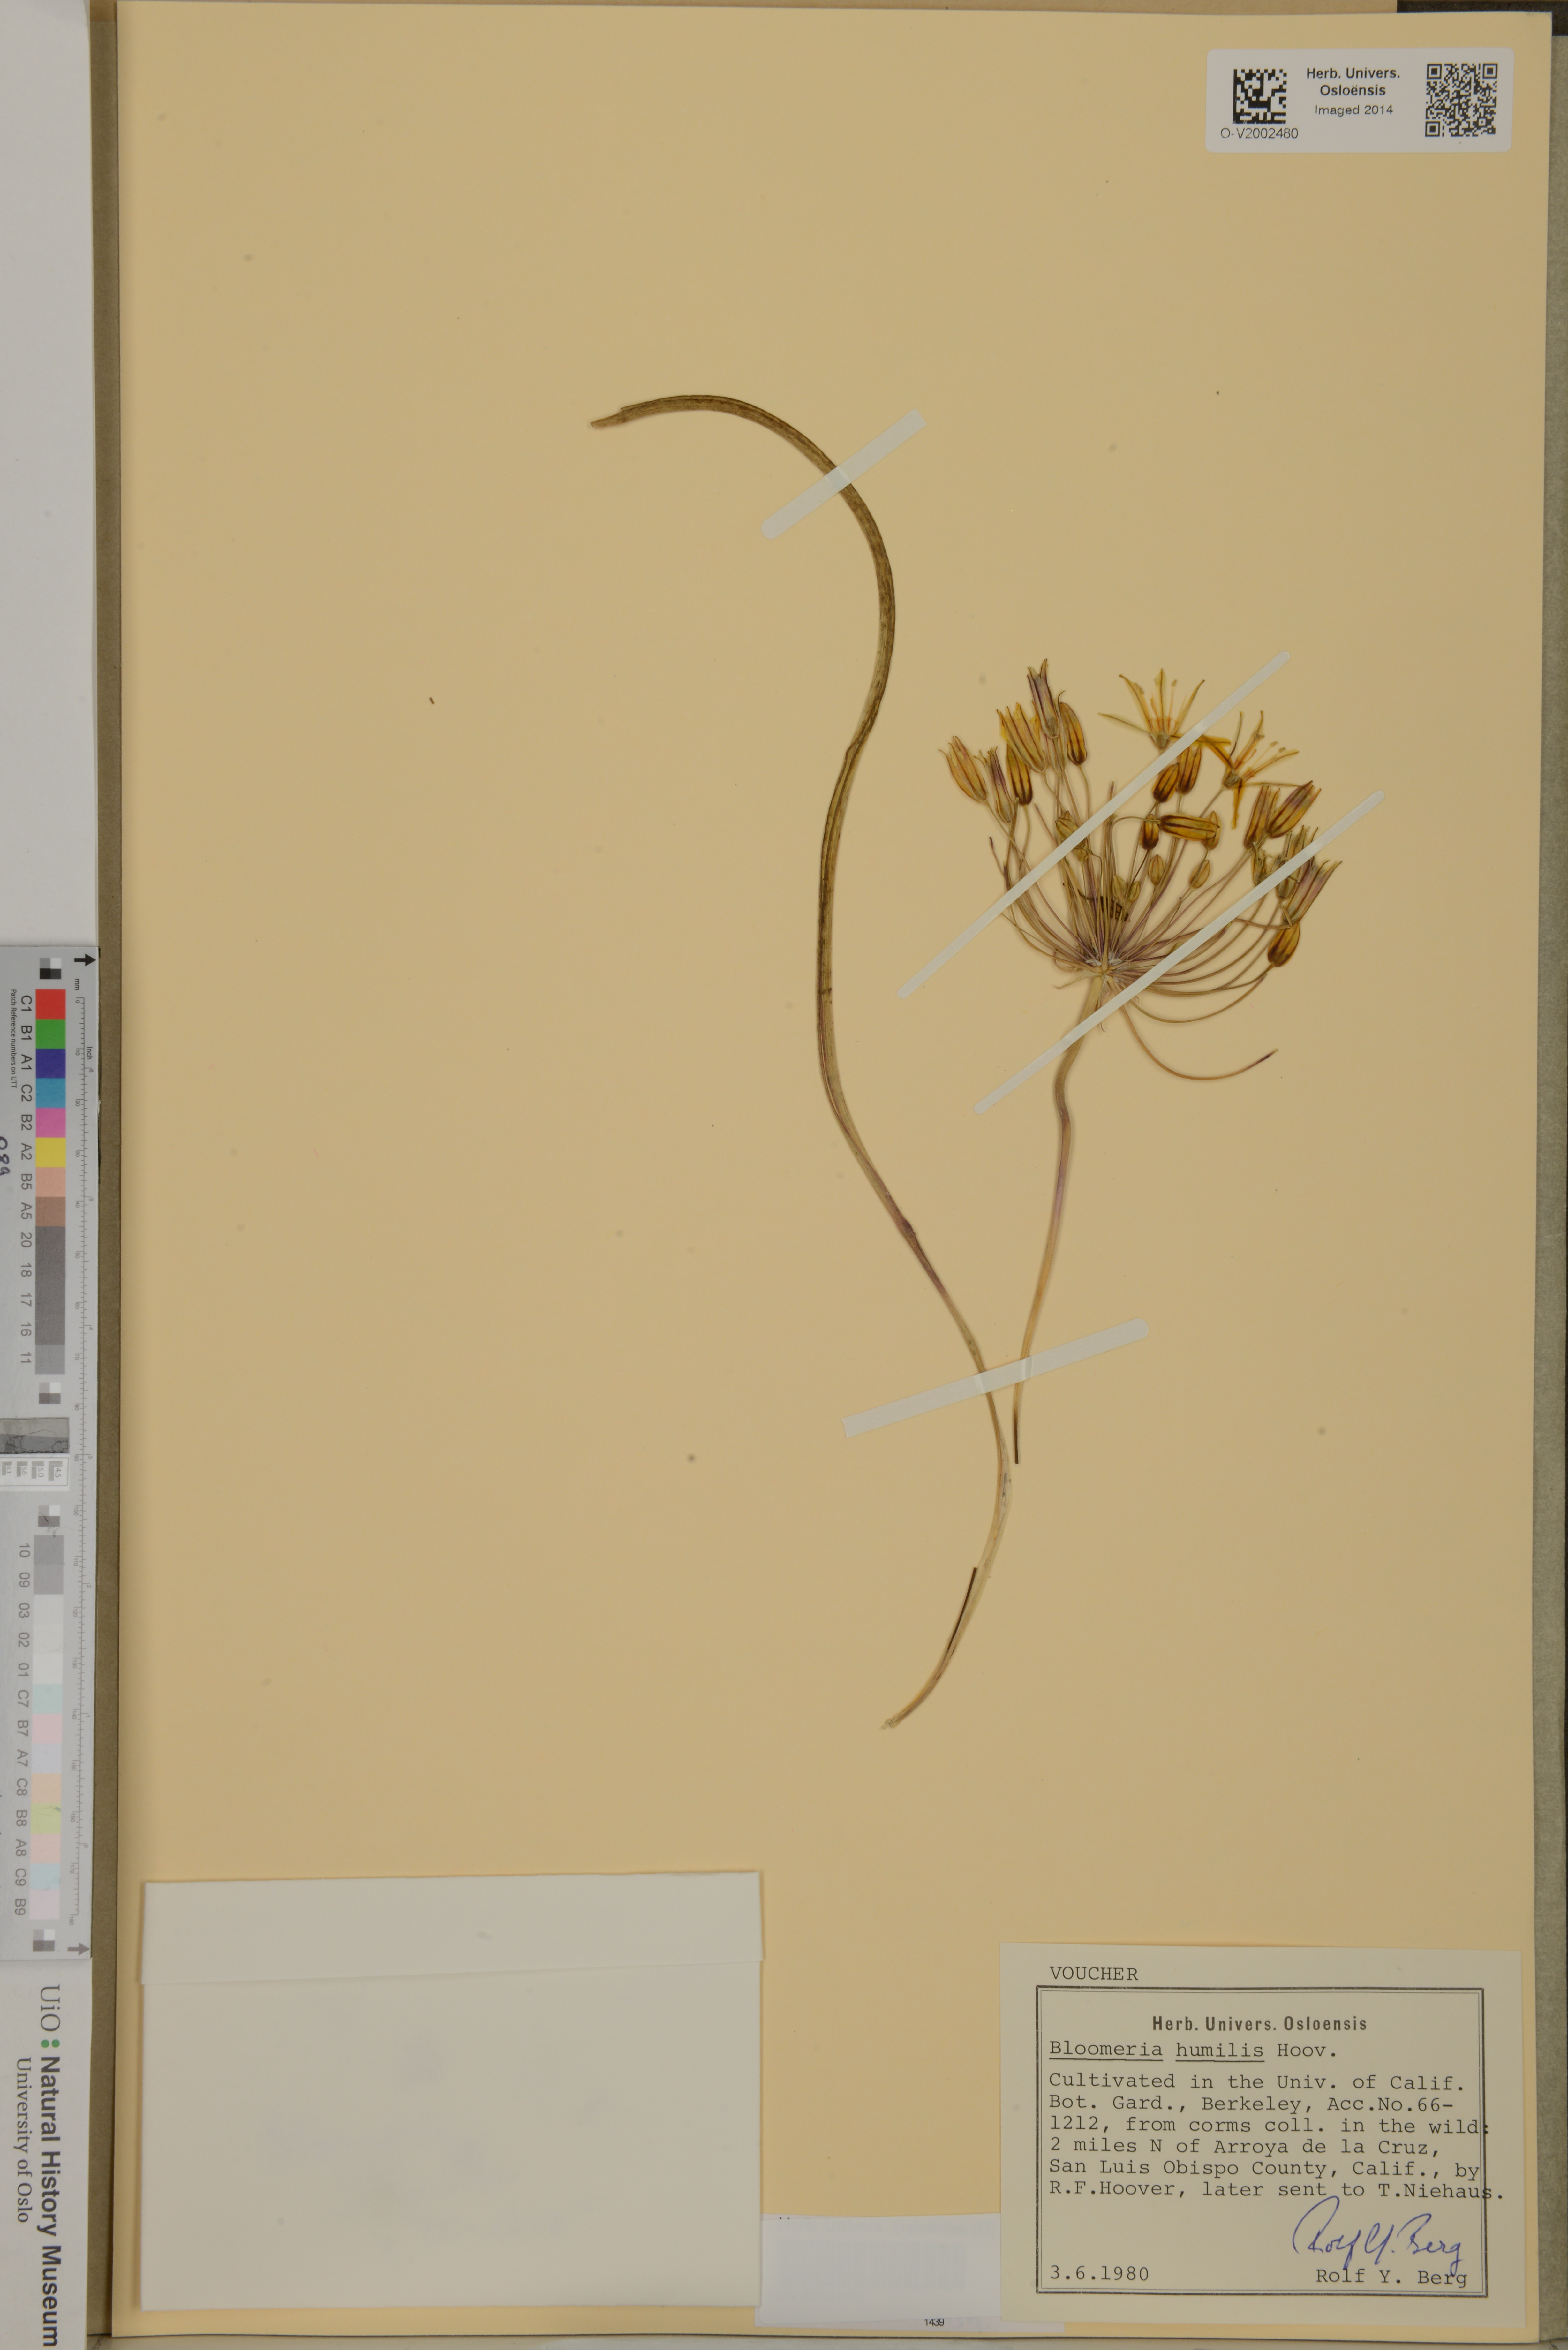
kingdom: Plantae
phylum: Tracheophyta
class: Liliopsida
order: Asparagales
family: Asparagaceae
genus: Bloomeria
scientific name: Bloomeria humilis
